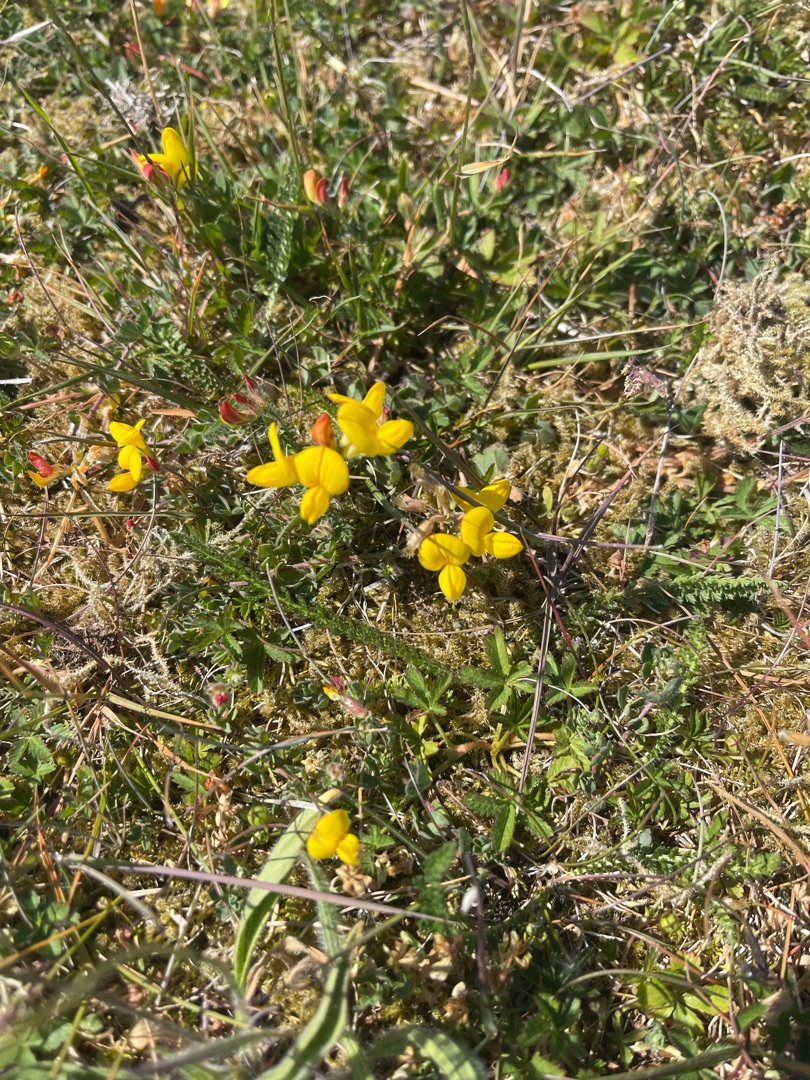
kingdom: Plantae
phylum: Tracheophyta
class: Magnoliopsida
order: Fabales
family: Fabaceae
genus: Lotus
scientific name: Lotus corniculatus
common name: Almindelig kællingetand
